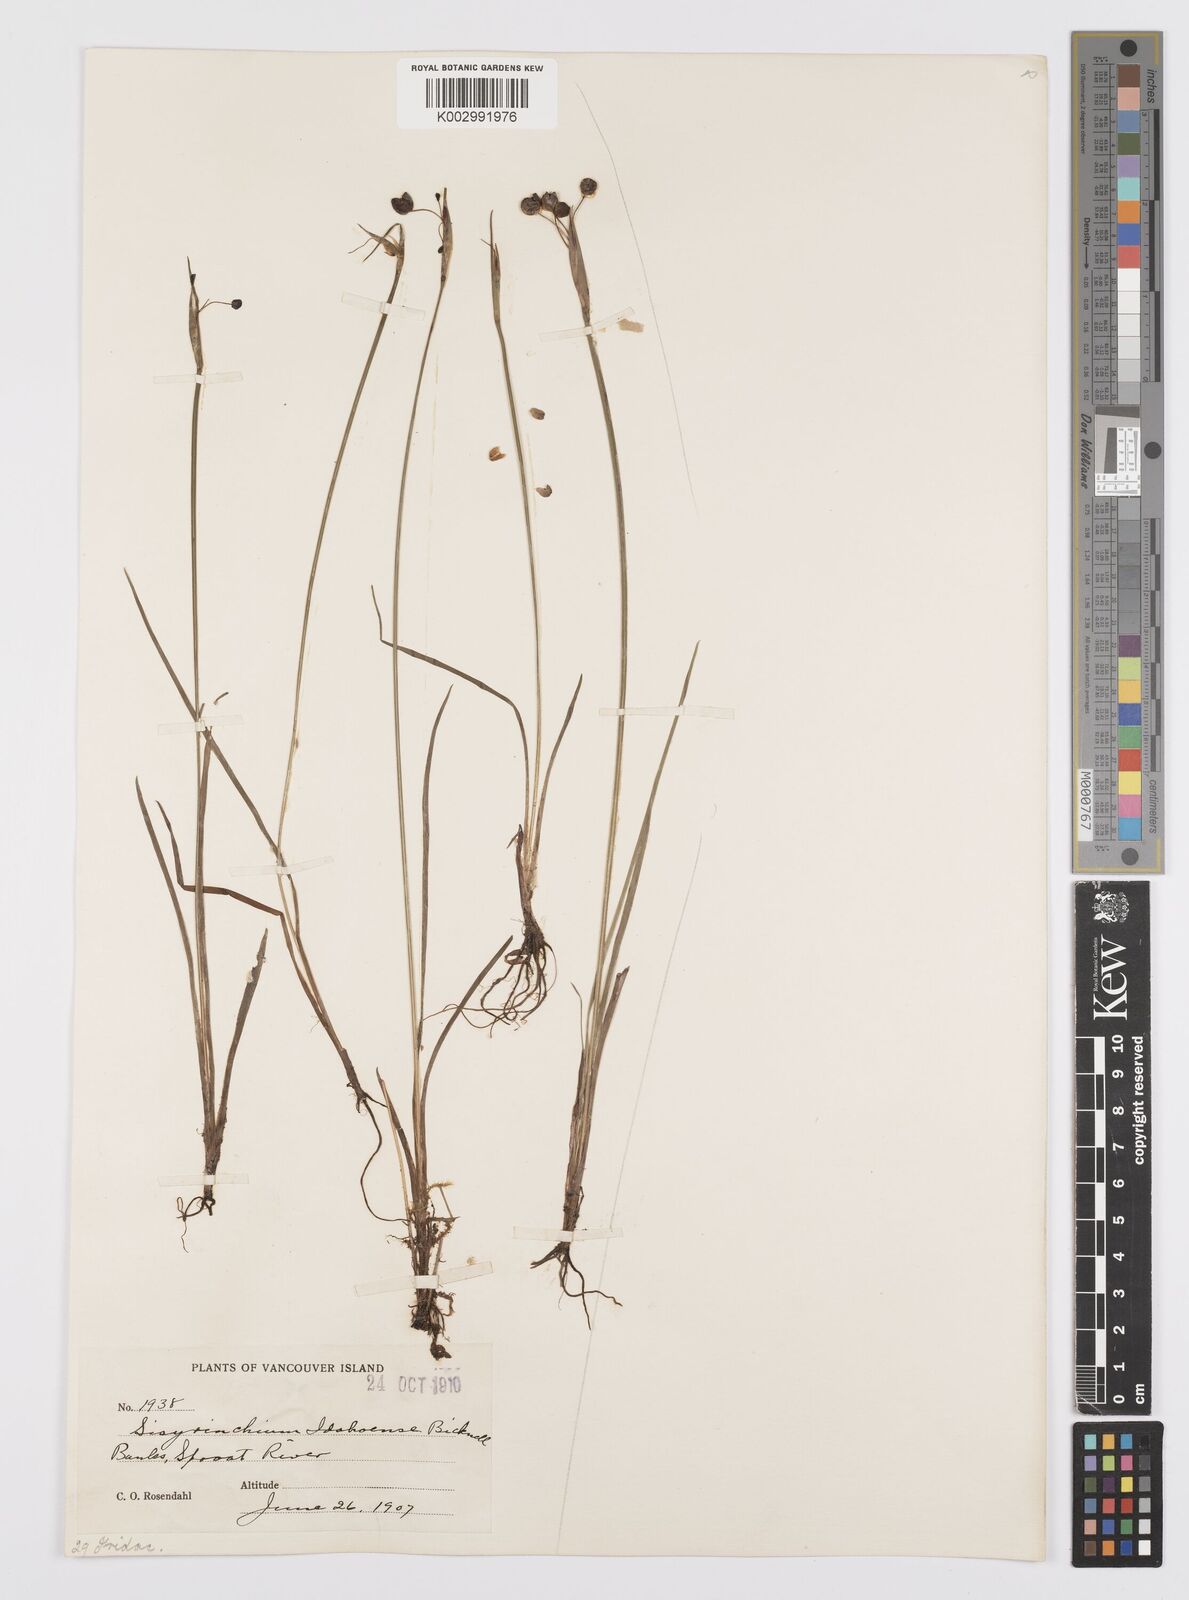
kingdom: Plantae
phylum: Tracheophyta
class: Liliopsida
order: Asparagales
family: Iridaceae
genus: Sisyrinchium
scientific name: Sisyrinchium idahoense
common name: Idaho blue-eyed-grass
